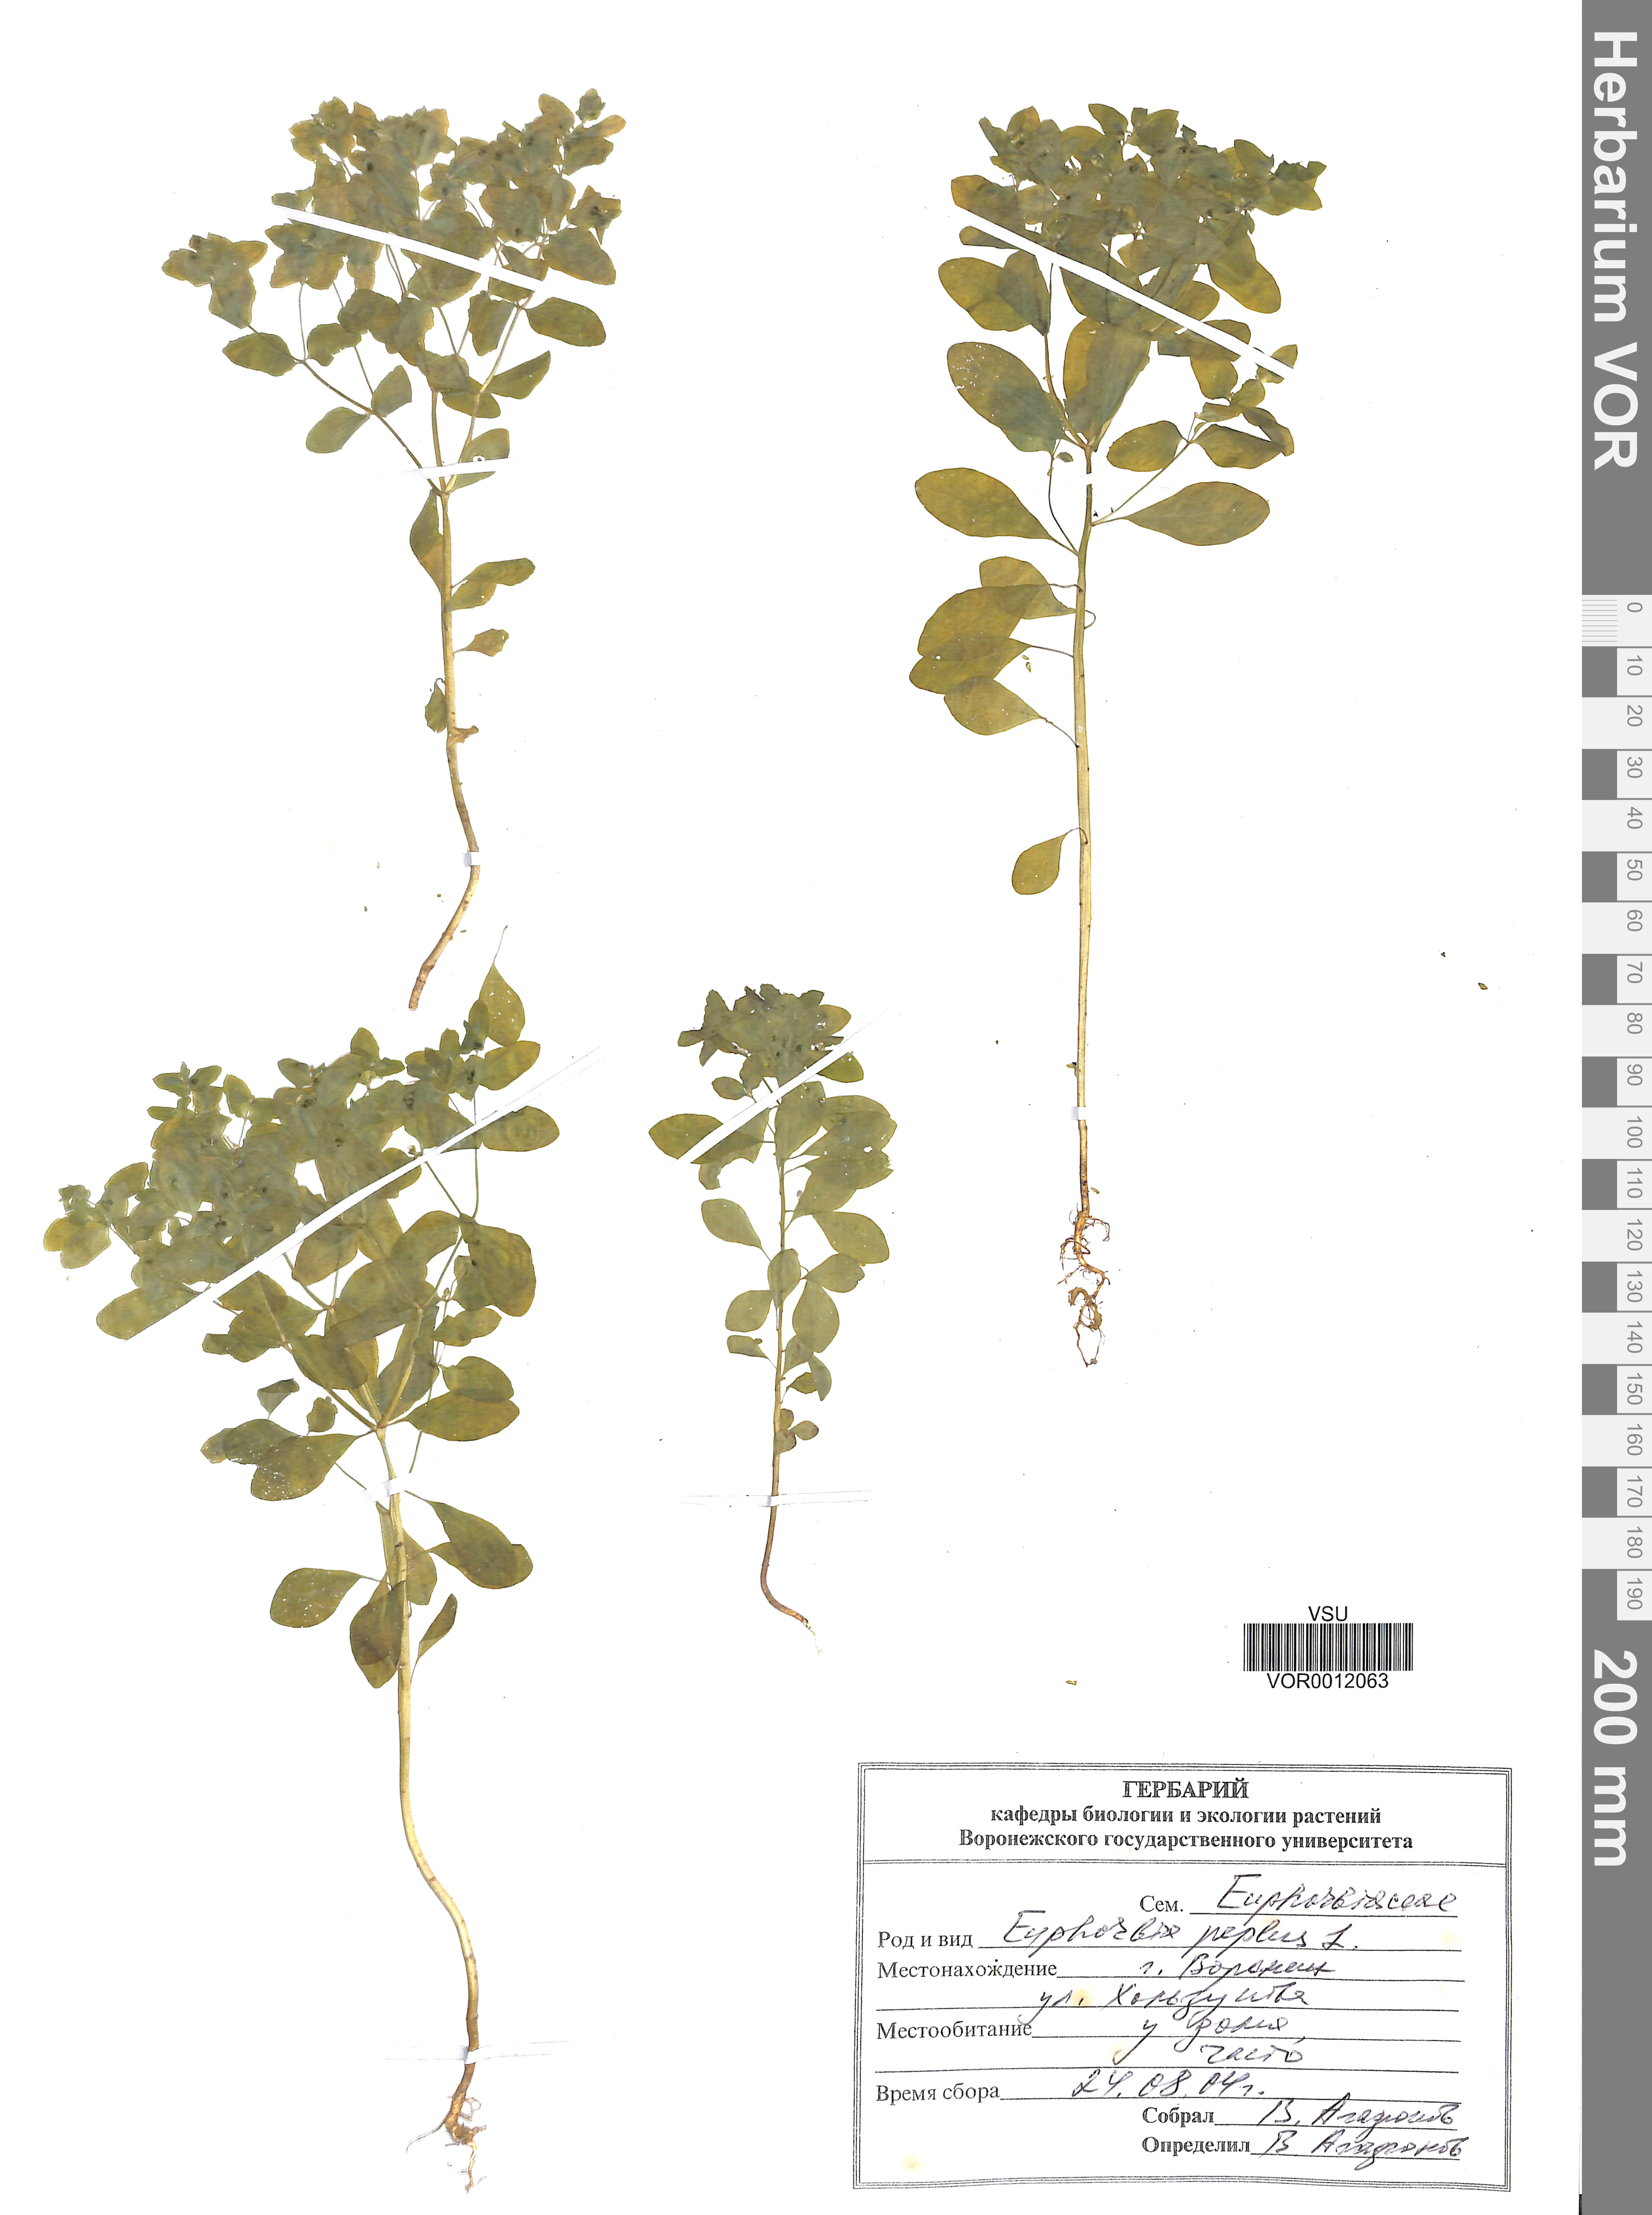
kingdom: Plantae
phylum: Tracheophyta
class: Magnoliopsida
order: Malpighiales
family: Euphorbiaceae
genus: Euphorbia
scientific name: Euphorbia peplus
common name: Petty spurge
